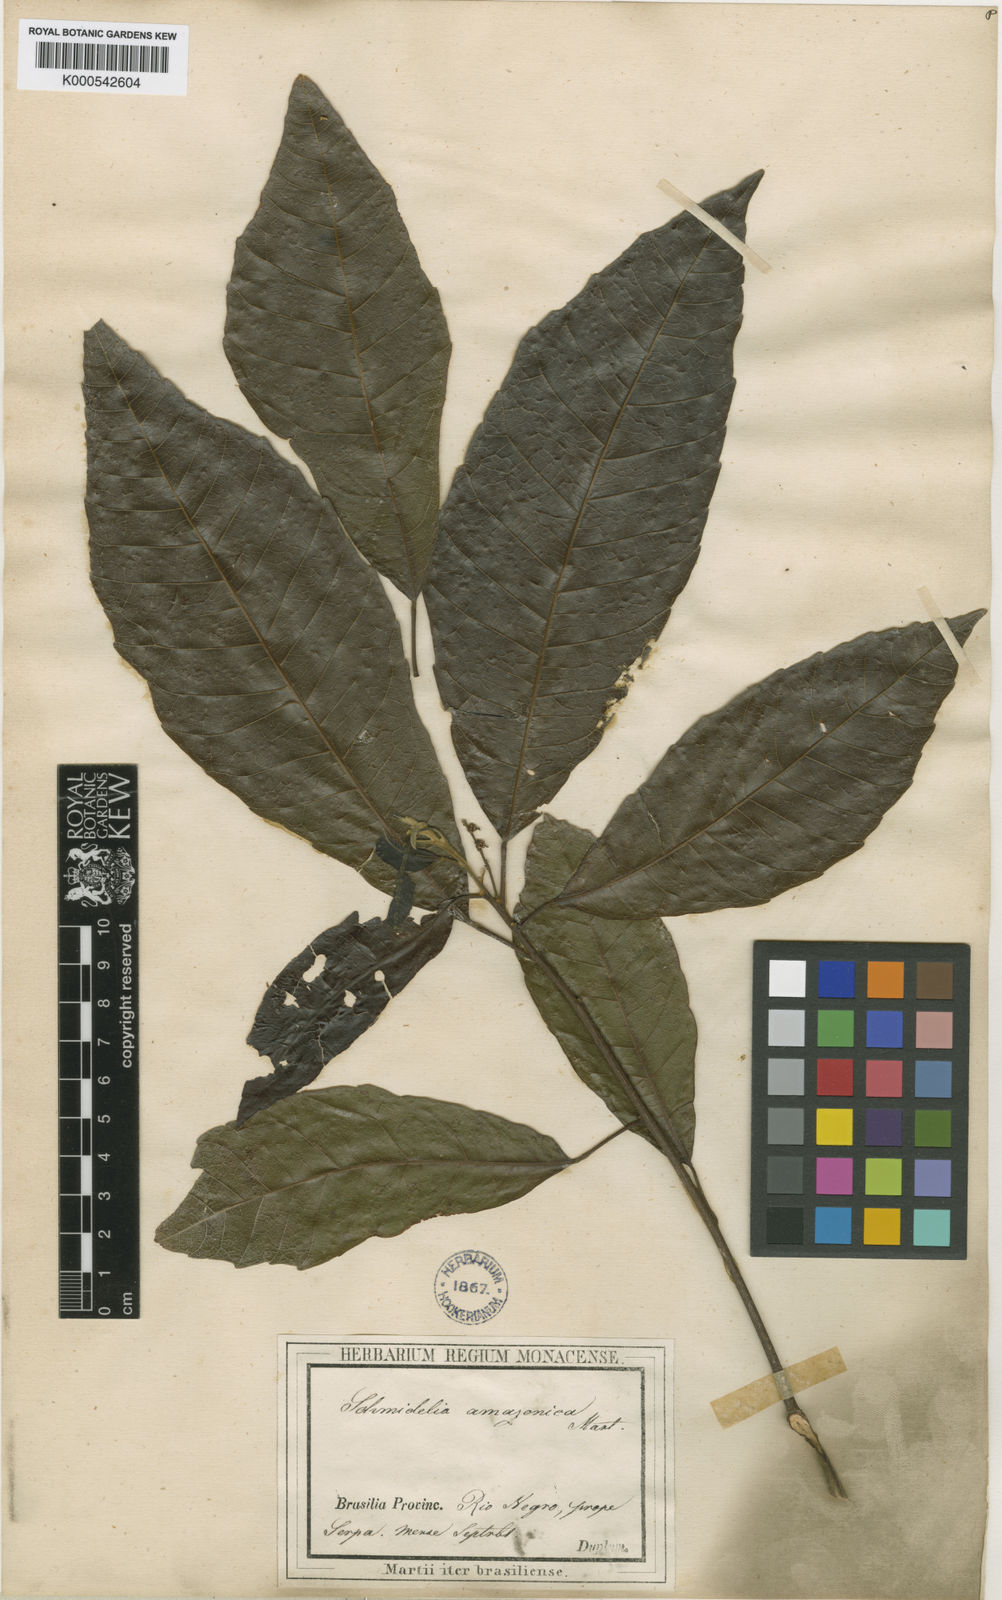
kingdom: Plantae
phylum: Tracheophyta
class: Magnoliopsida
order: Sapindales
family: Sapindaceae
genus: Allophylus
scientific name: Allophylus amazonicus
